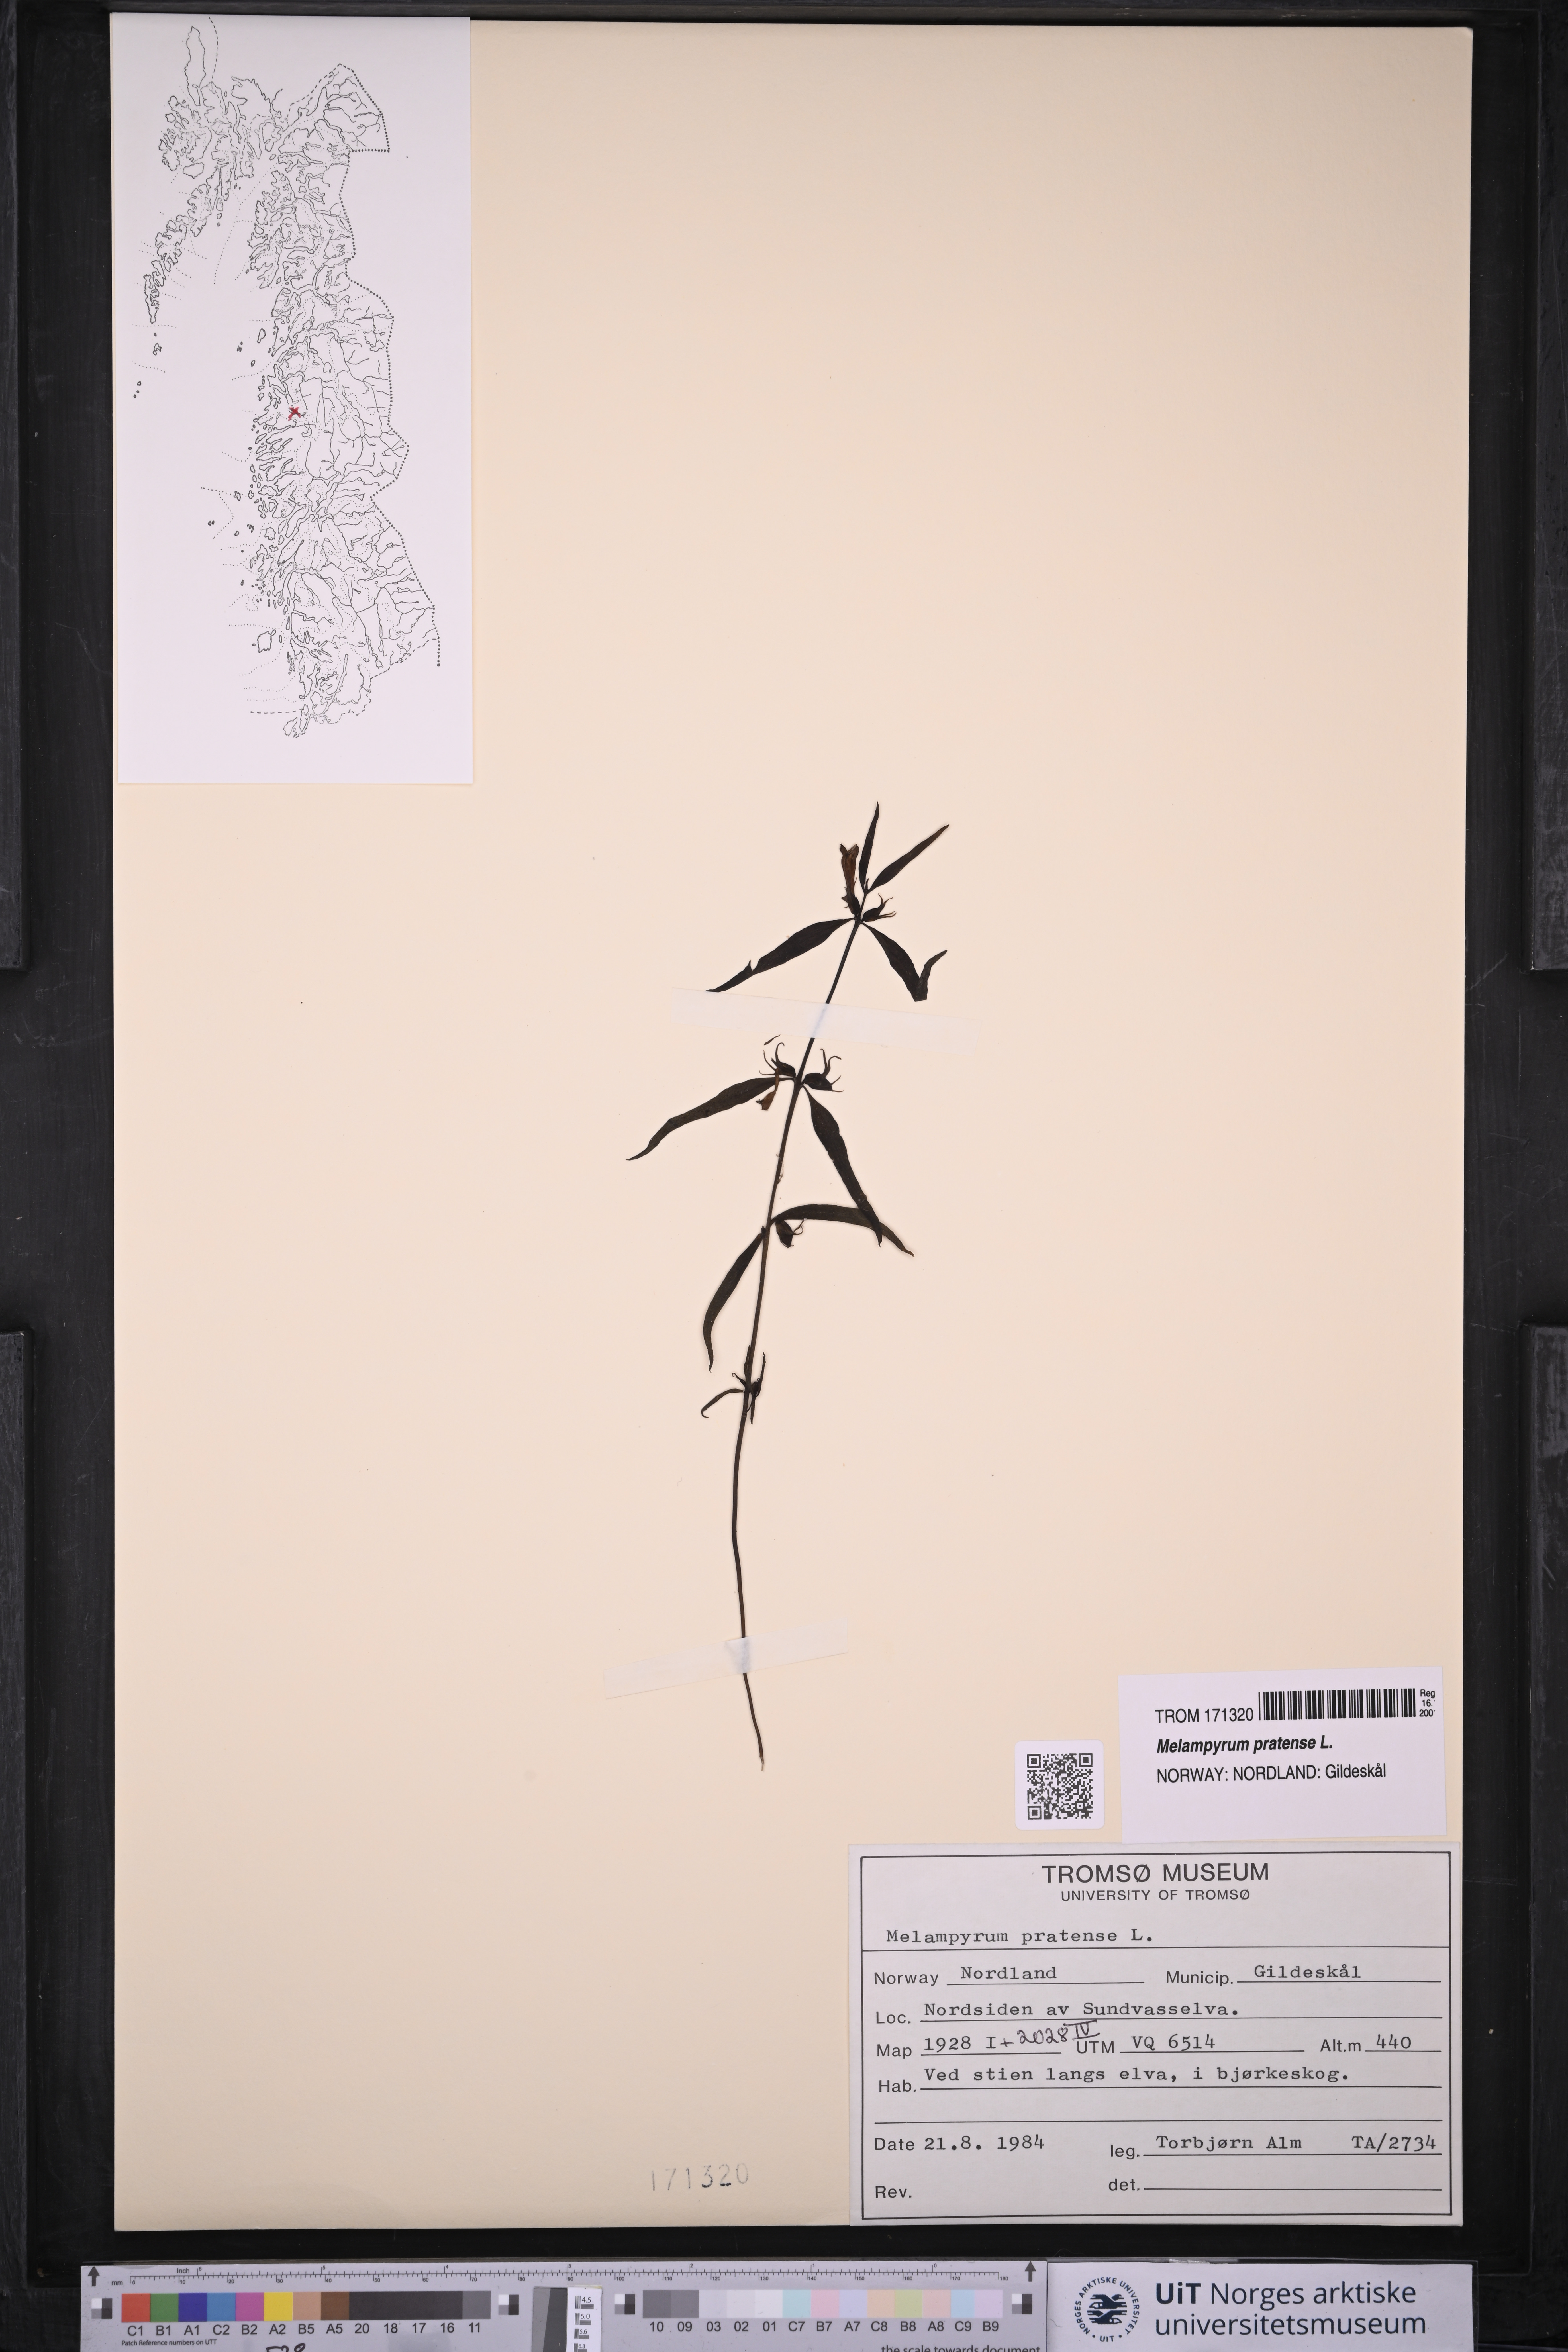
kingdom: Plantae
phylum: Tracheophyta
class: Magnoliopsida
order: Lamiales
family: Orobanchaceae
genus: Melampyrum
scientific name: Melampyrum pratense
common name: Common cow-wheat
